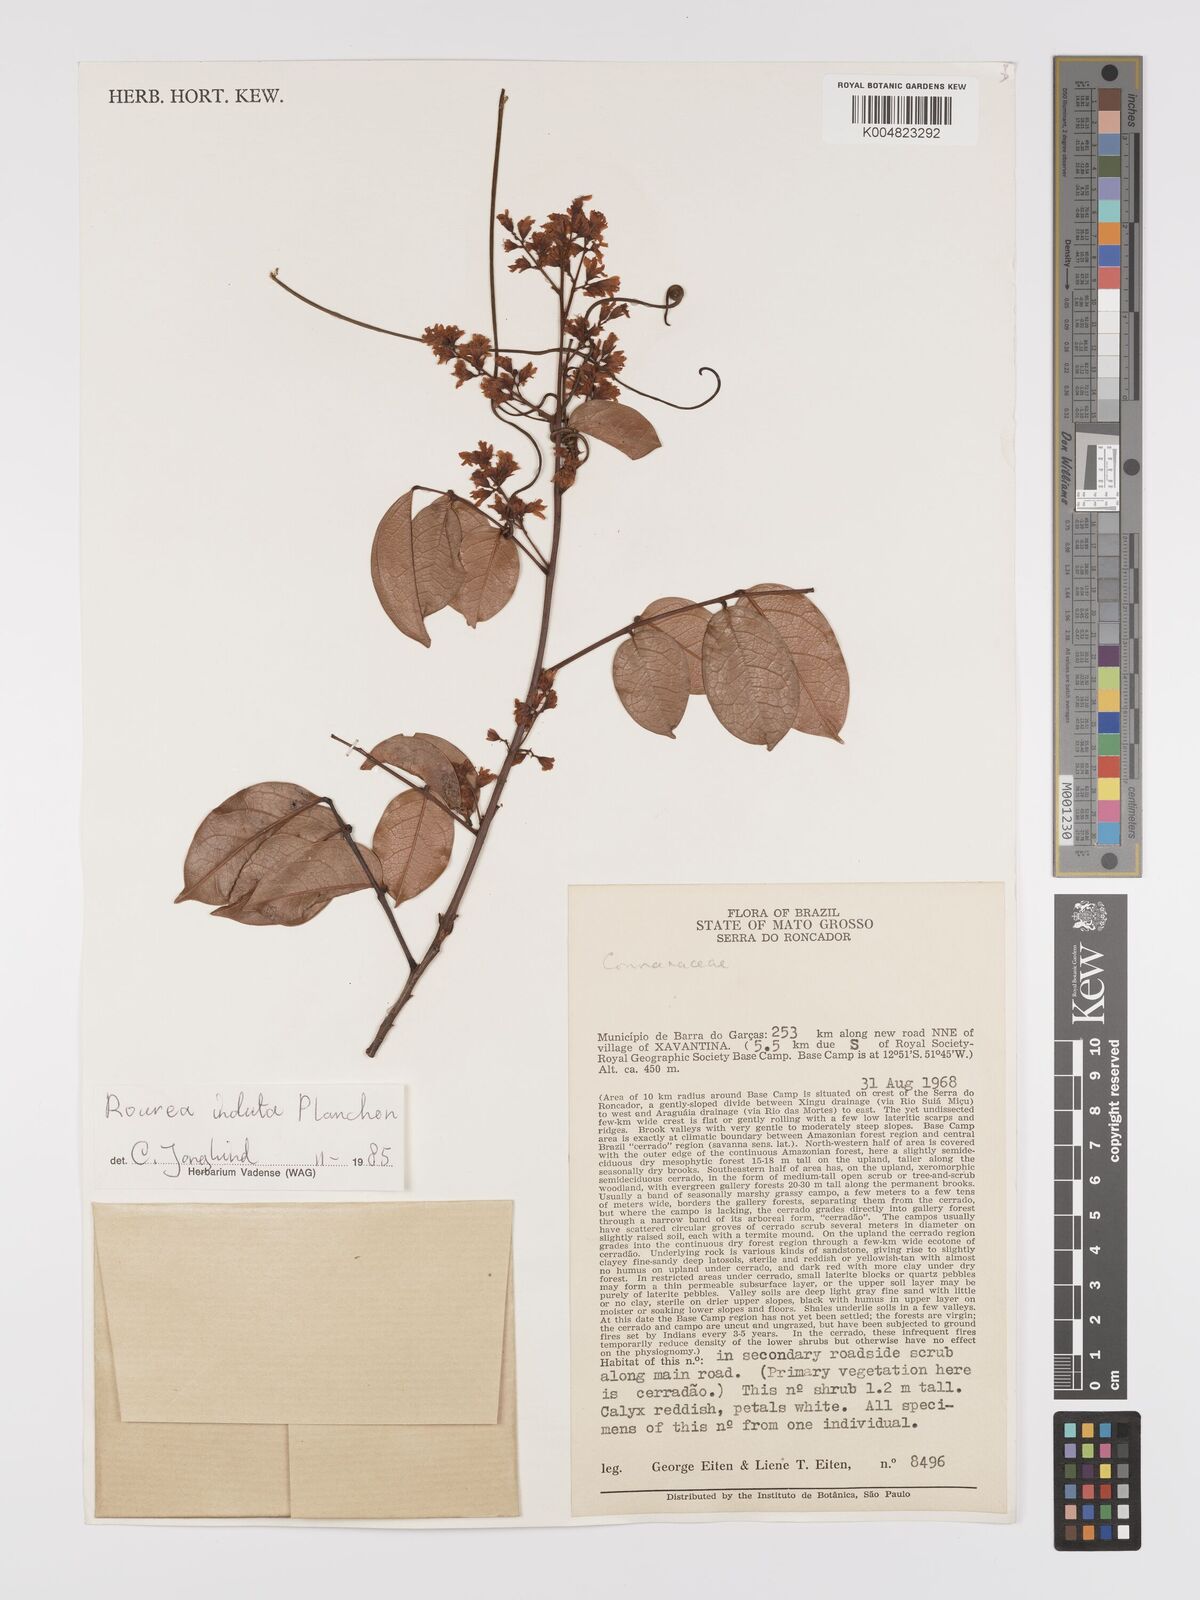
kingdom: Plantae
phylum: Tracheophyta
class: Magnoliopsida
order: Oxalidales
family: Connaraceae
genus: Rourea
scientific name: Rourea induta
